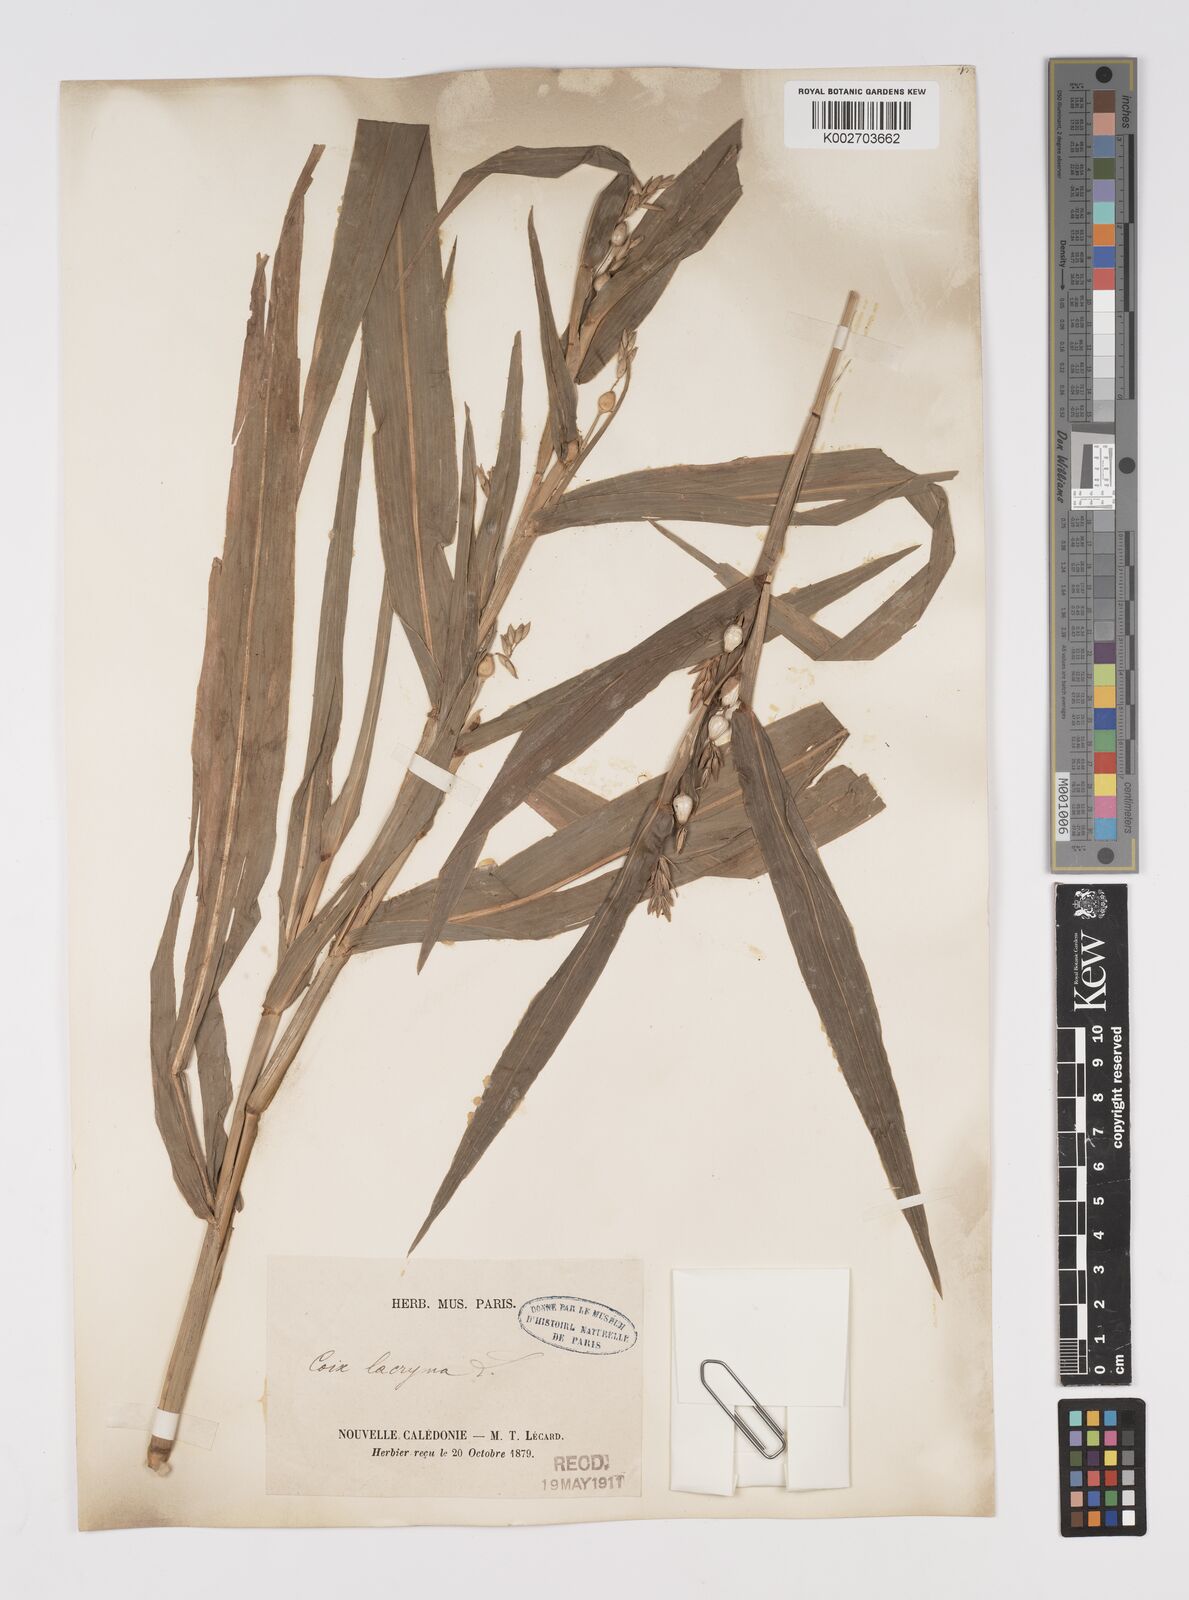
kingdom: Plantae
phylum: Tracheophyta
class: Liliopsida
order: Poales
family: Poaceae
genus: Coix
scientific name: Coix lacryma-jobi
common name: Job's tears
